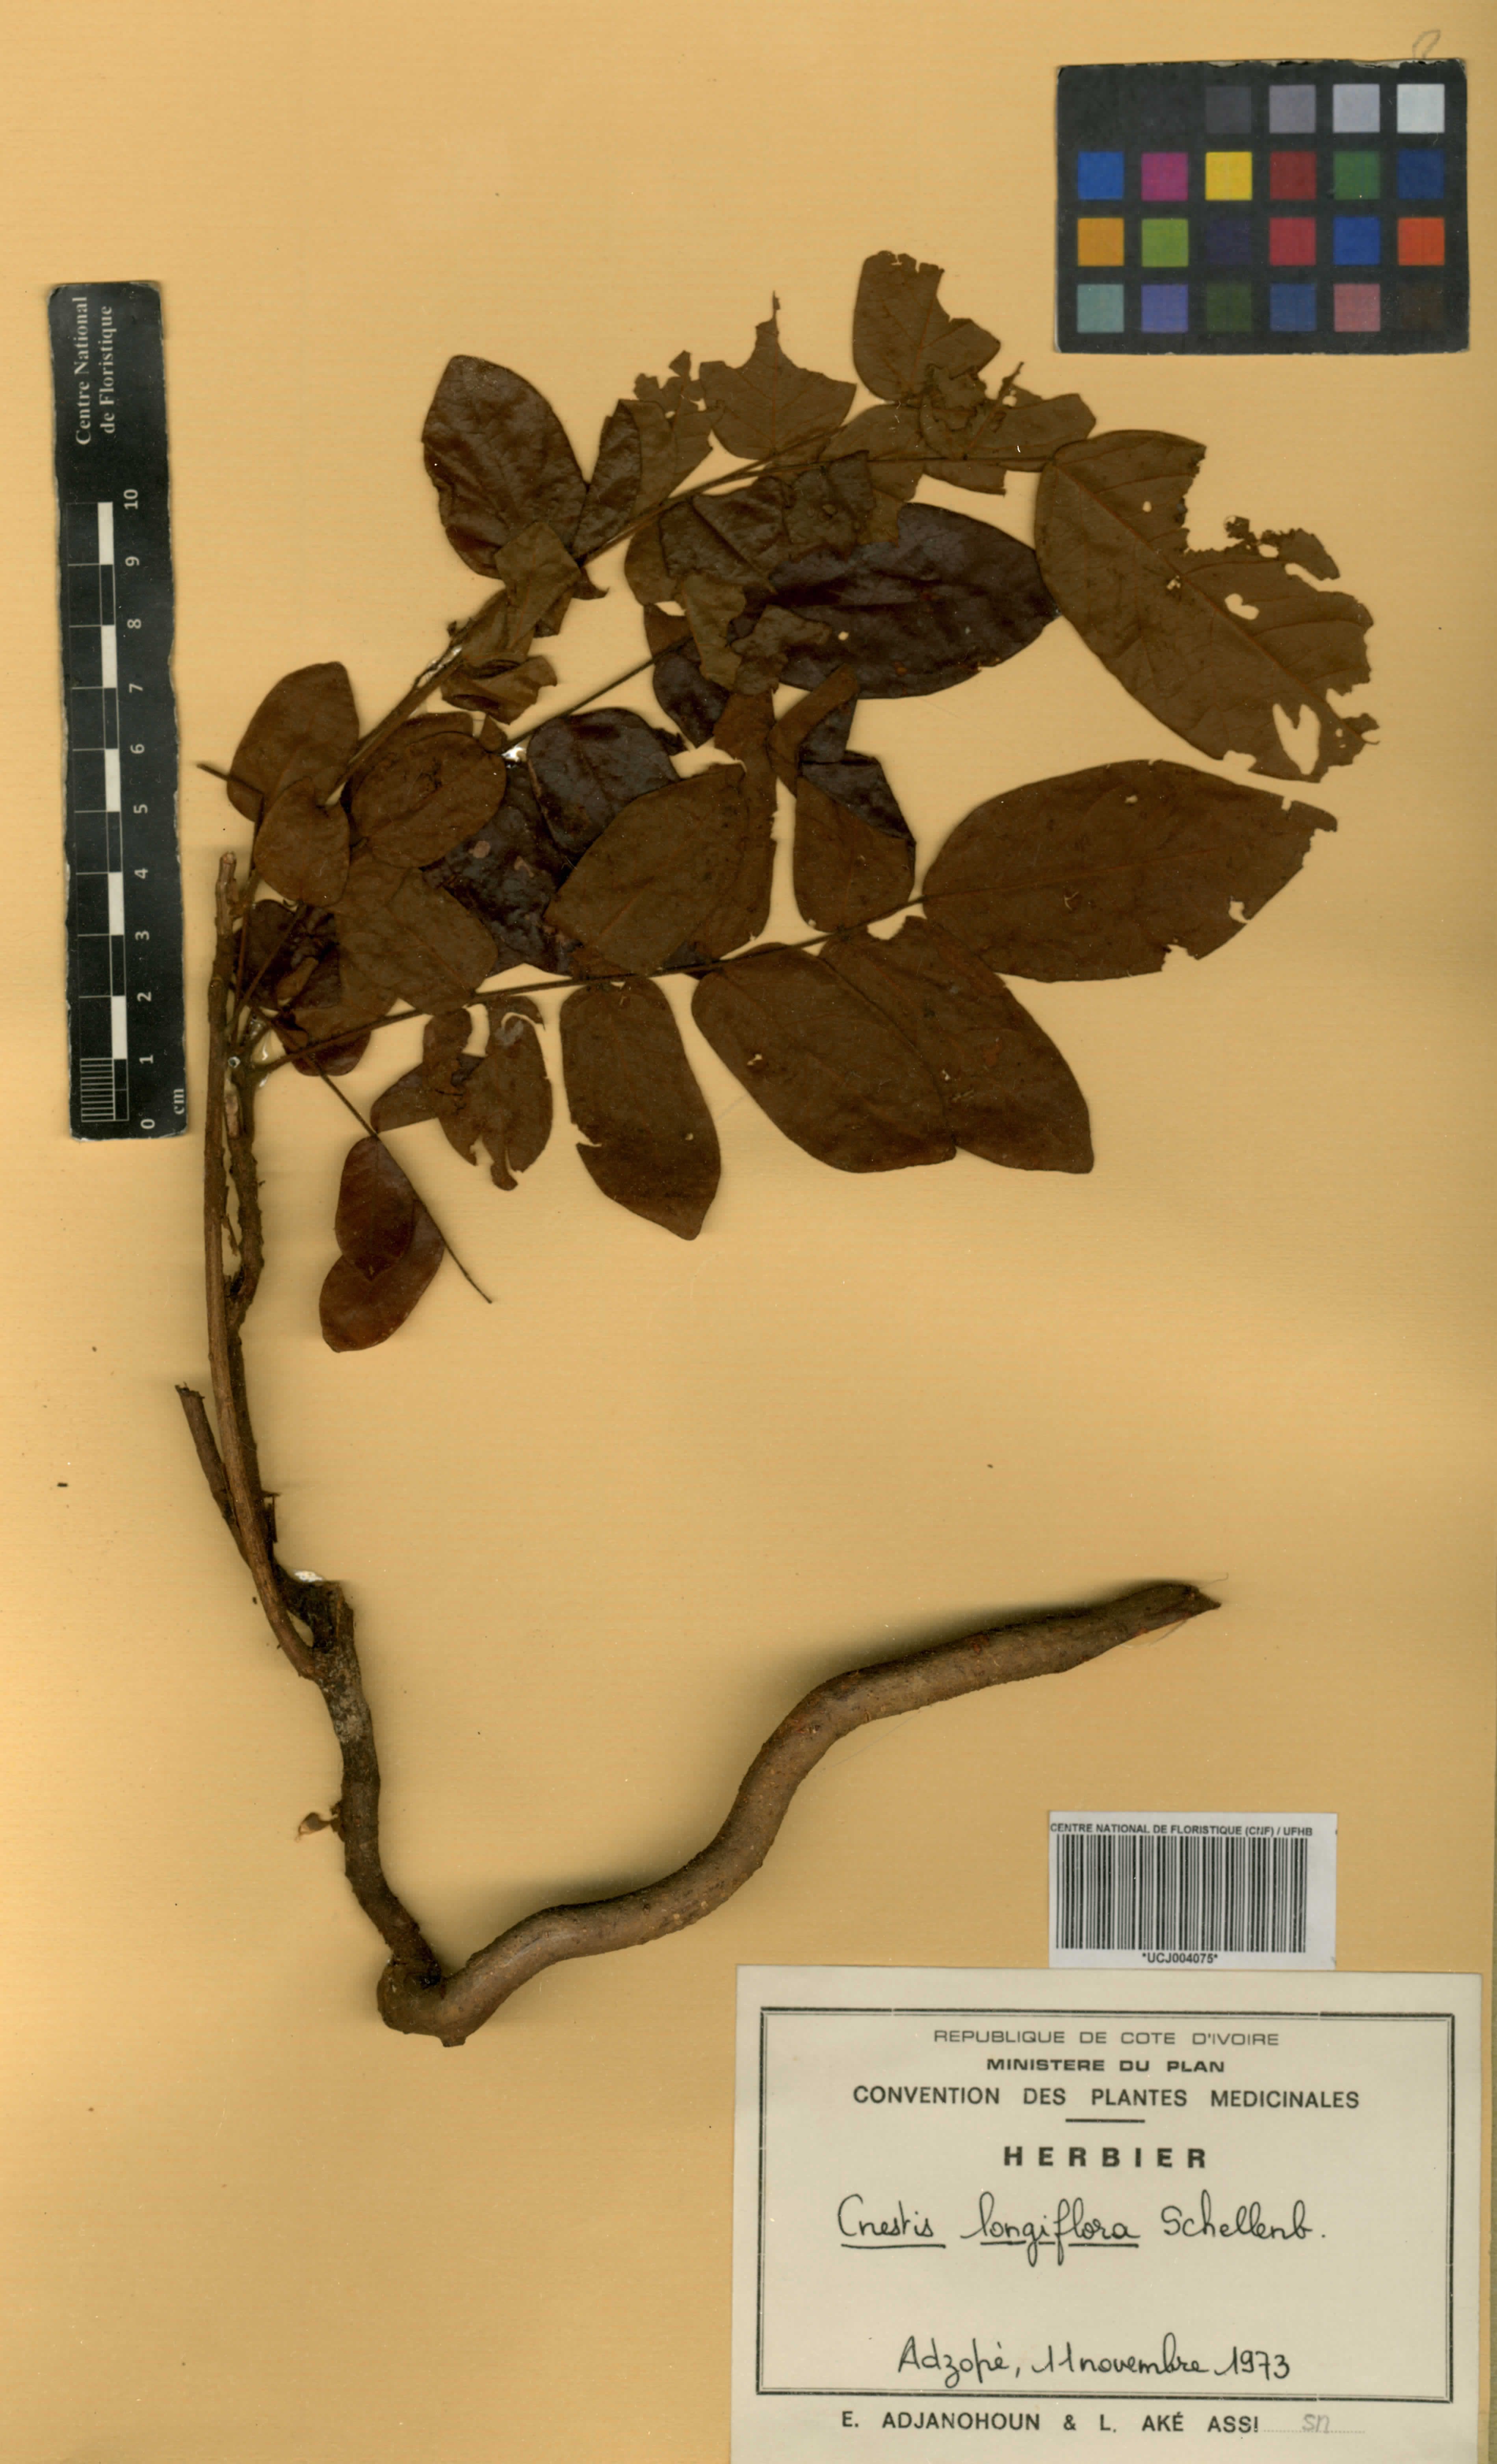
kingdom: Plantae
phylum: Tracheophyta
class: Magnoliopsida
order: Oxalidales
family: Connaraceae
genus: Cnestis
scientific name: Cnestis corniculata
